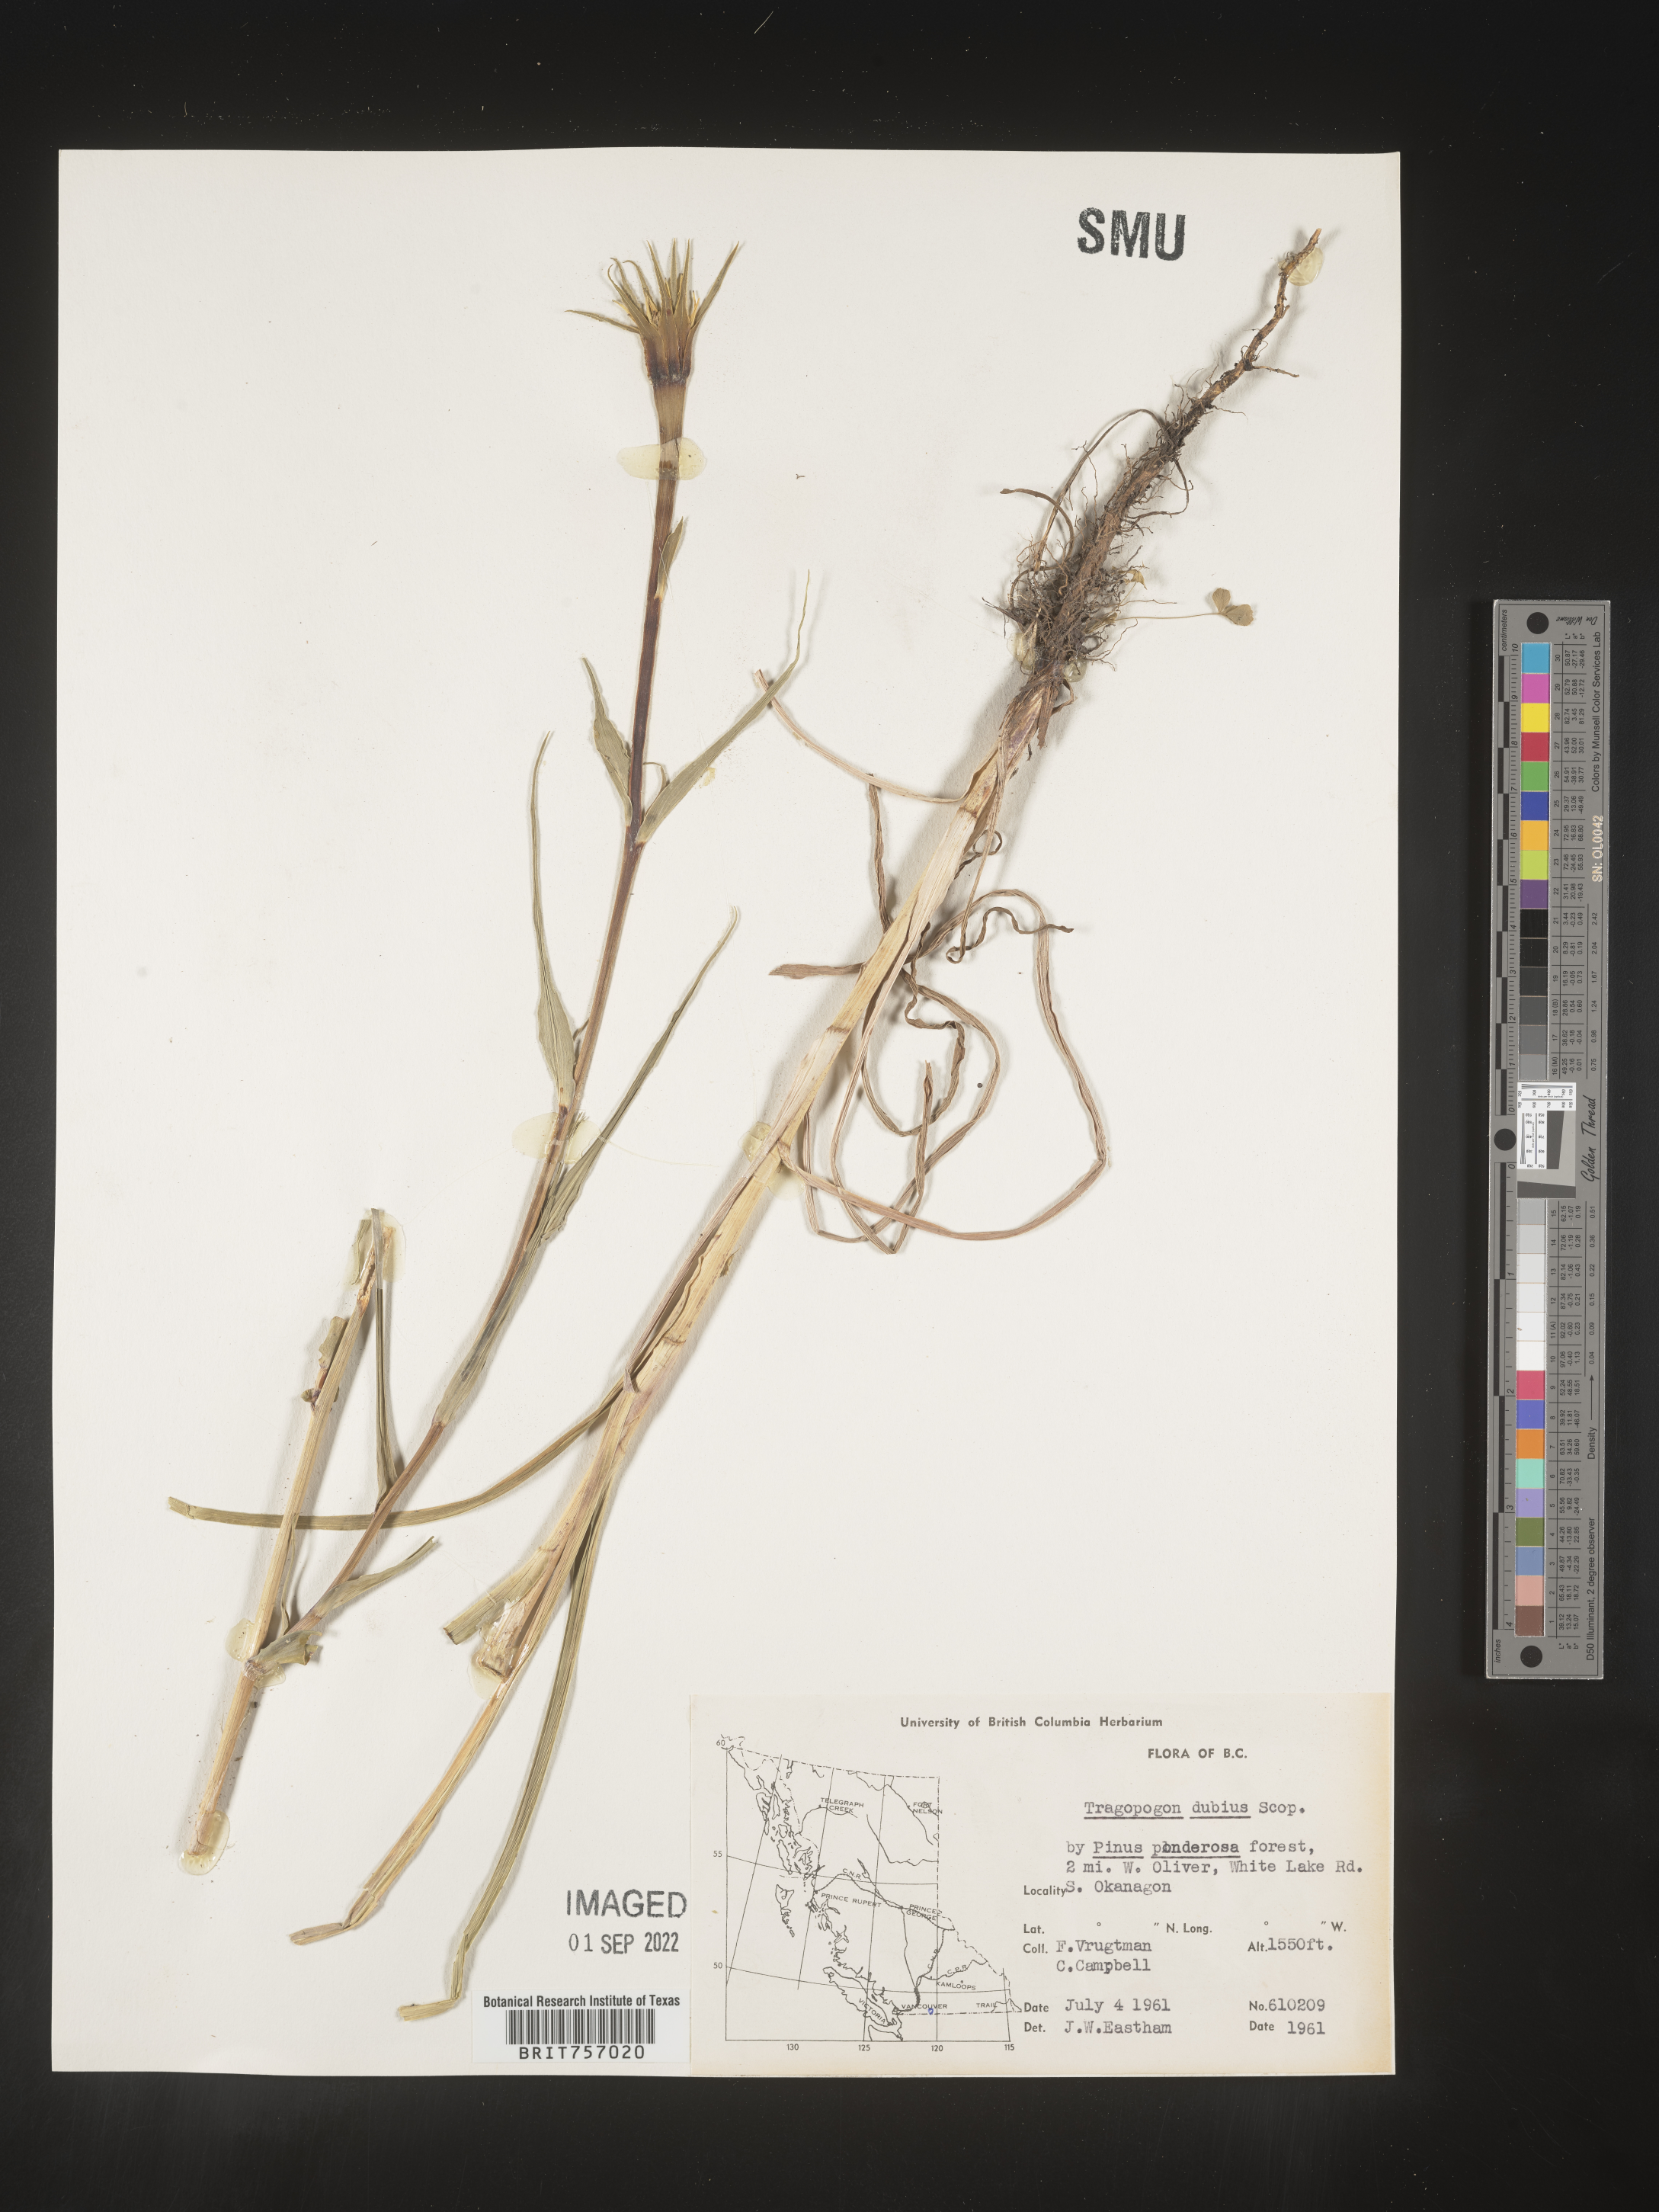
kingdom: Plantae
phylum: Tracheophyta
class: Magnoliopsida
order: Asterales
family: Asteraceae
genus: Tragopogon
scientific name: Tragopogon dubius
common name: Yellow salsify
